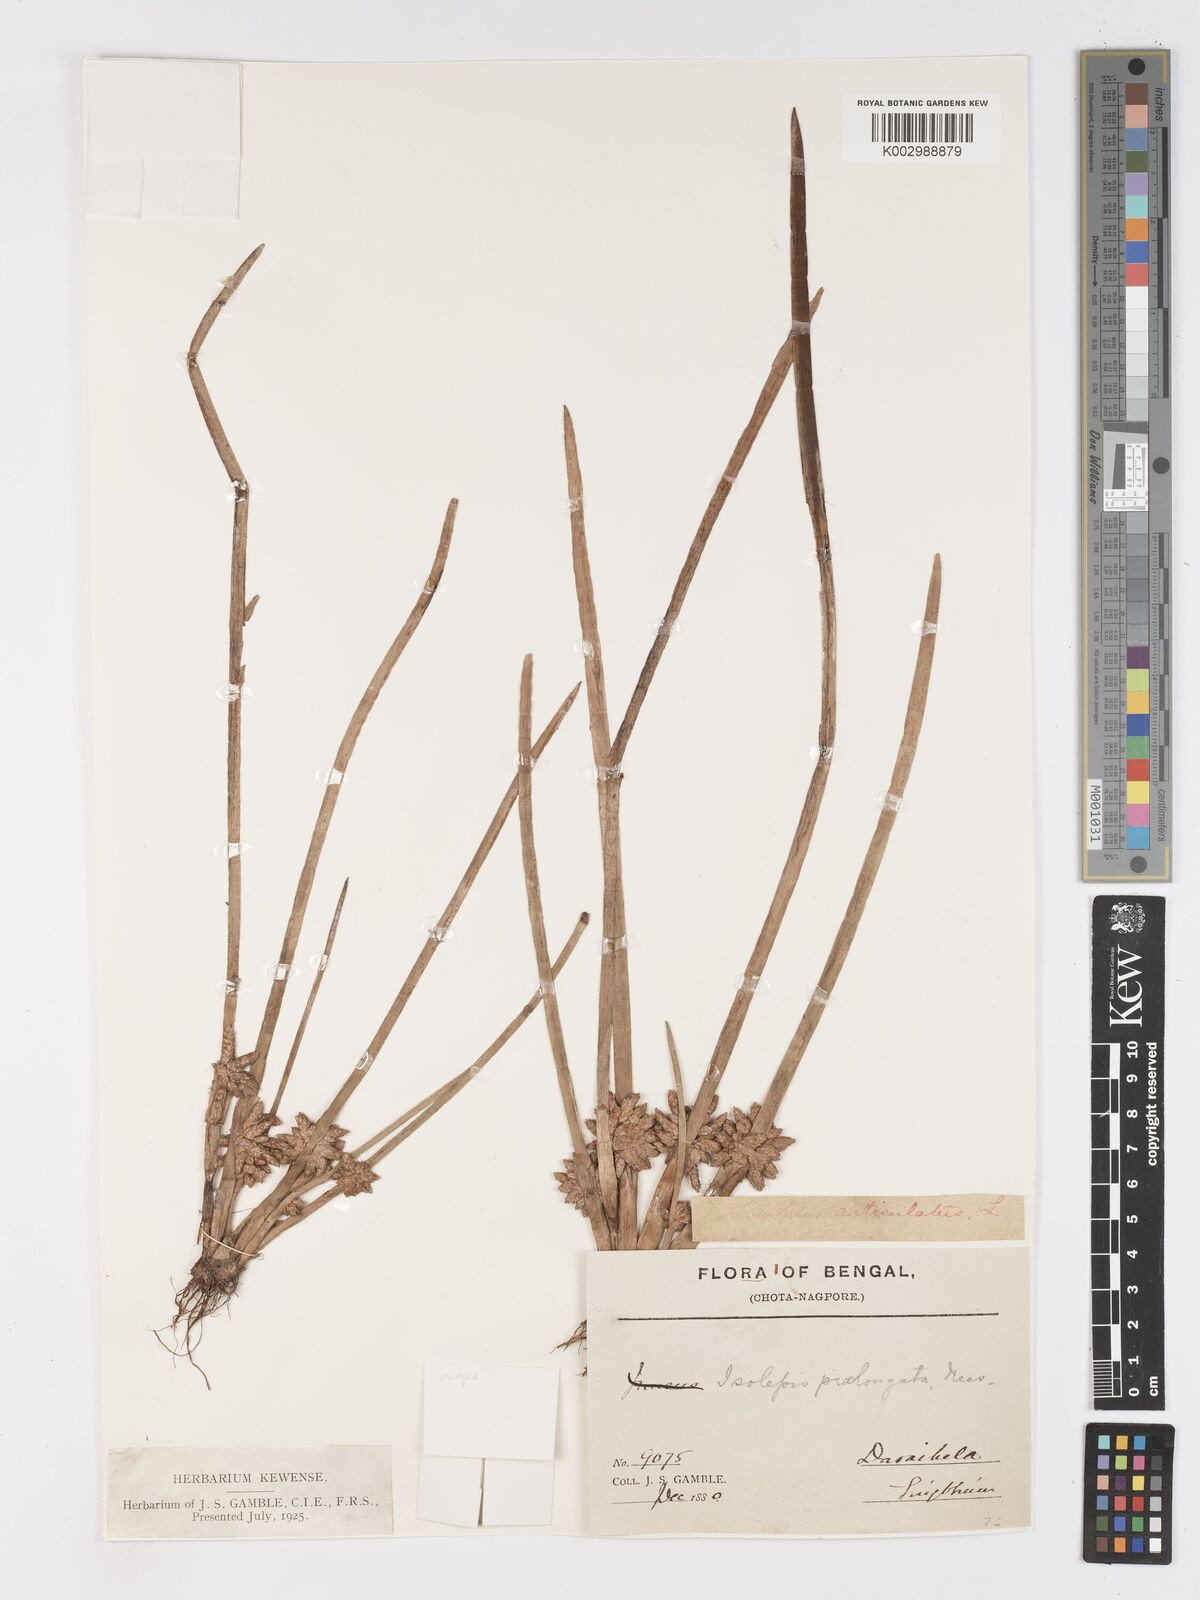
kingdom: Plantae
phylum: Tracheophyta
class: Liliopsida
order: Poales
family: Cyperaceae
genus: Schoenoplectiella
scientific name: Schoenoplectiella praelongata
